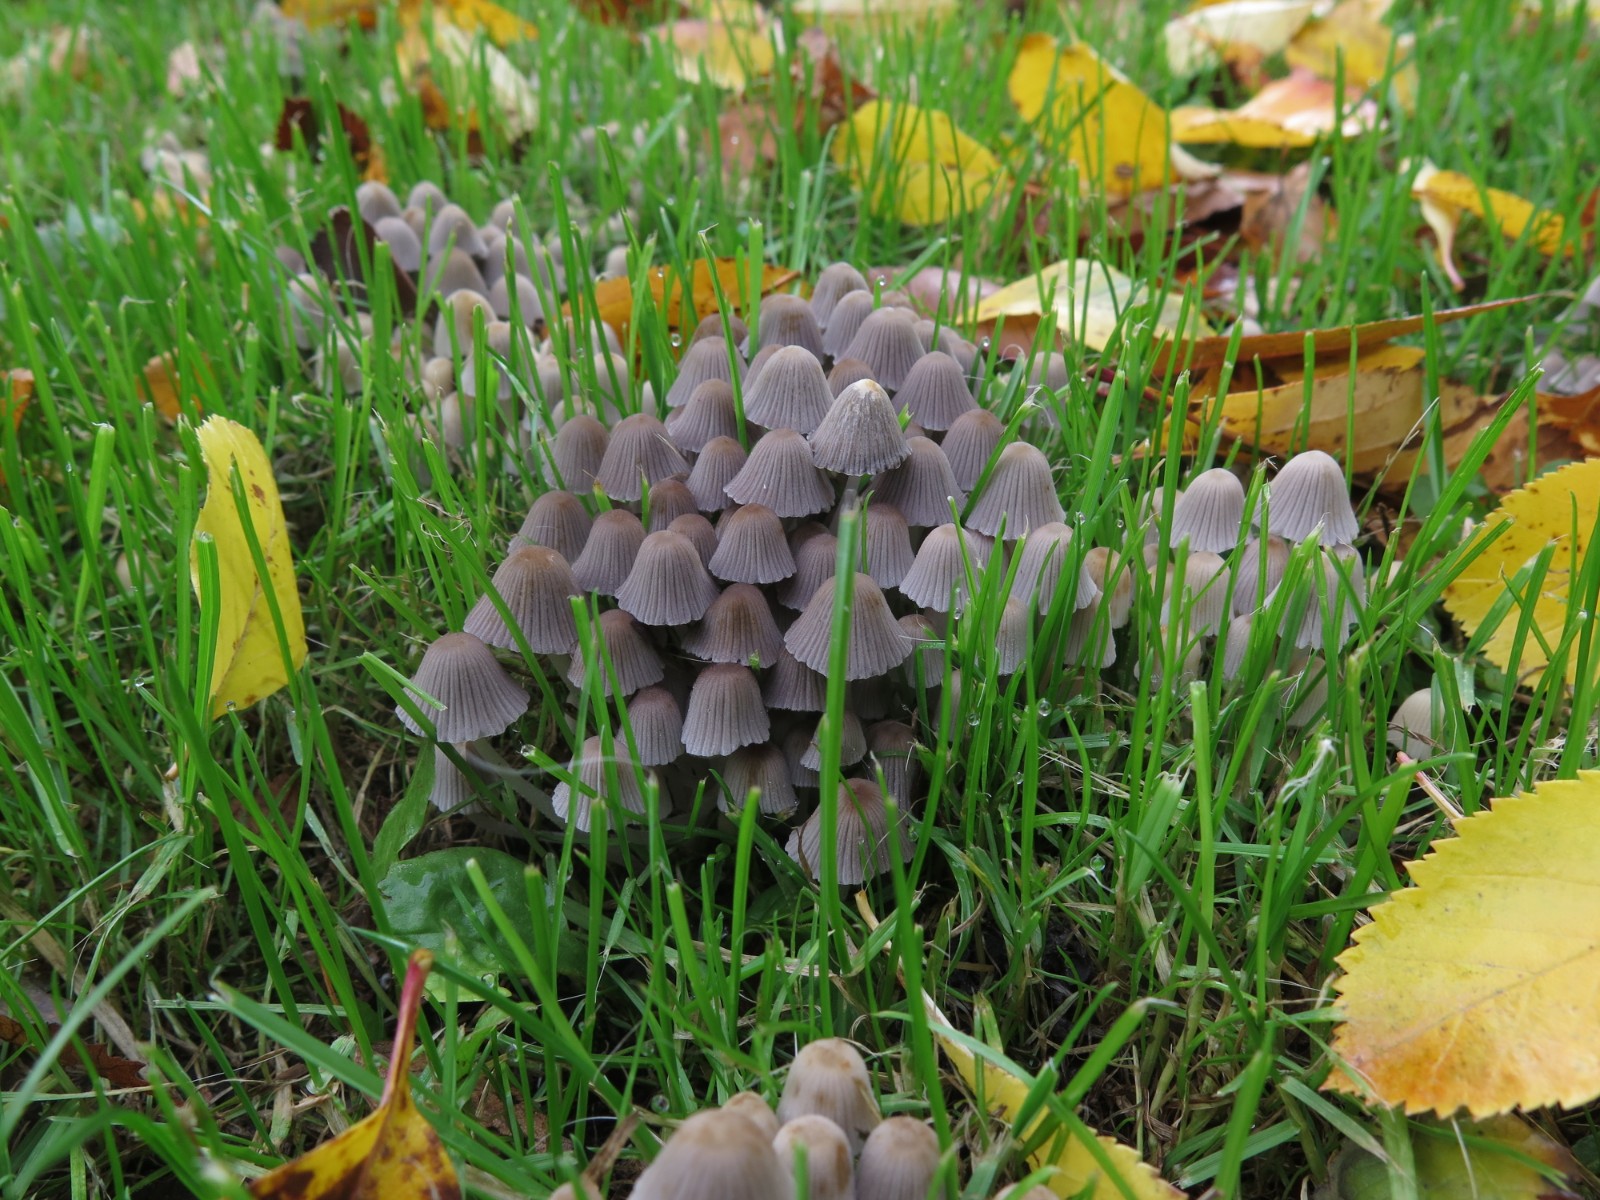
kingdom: Fungi
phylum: Basidiomycota
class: Agaricomycetes
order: Agaricales
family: Psathyrellaceae
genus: Coprinellus
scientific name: Coprinellus disseminatus
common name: bredsået blækhat
